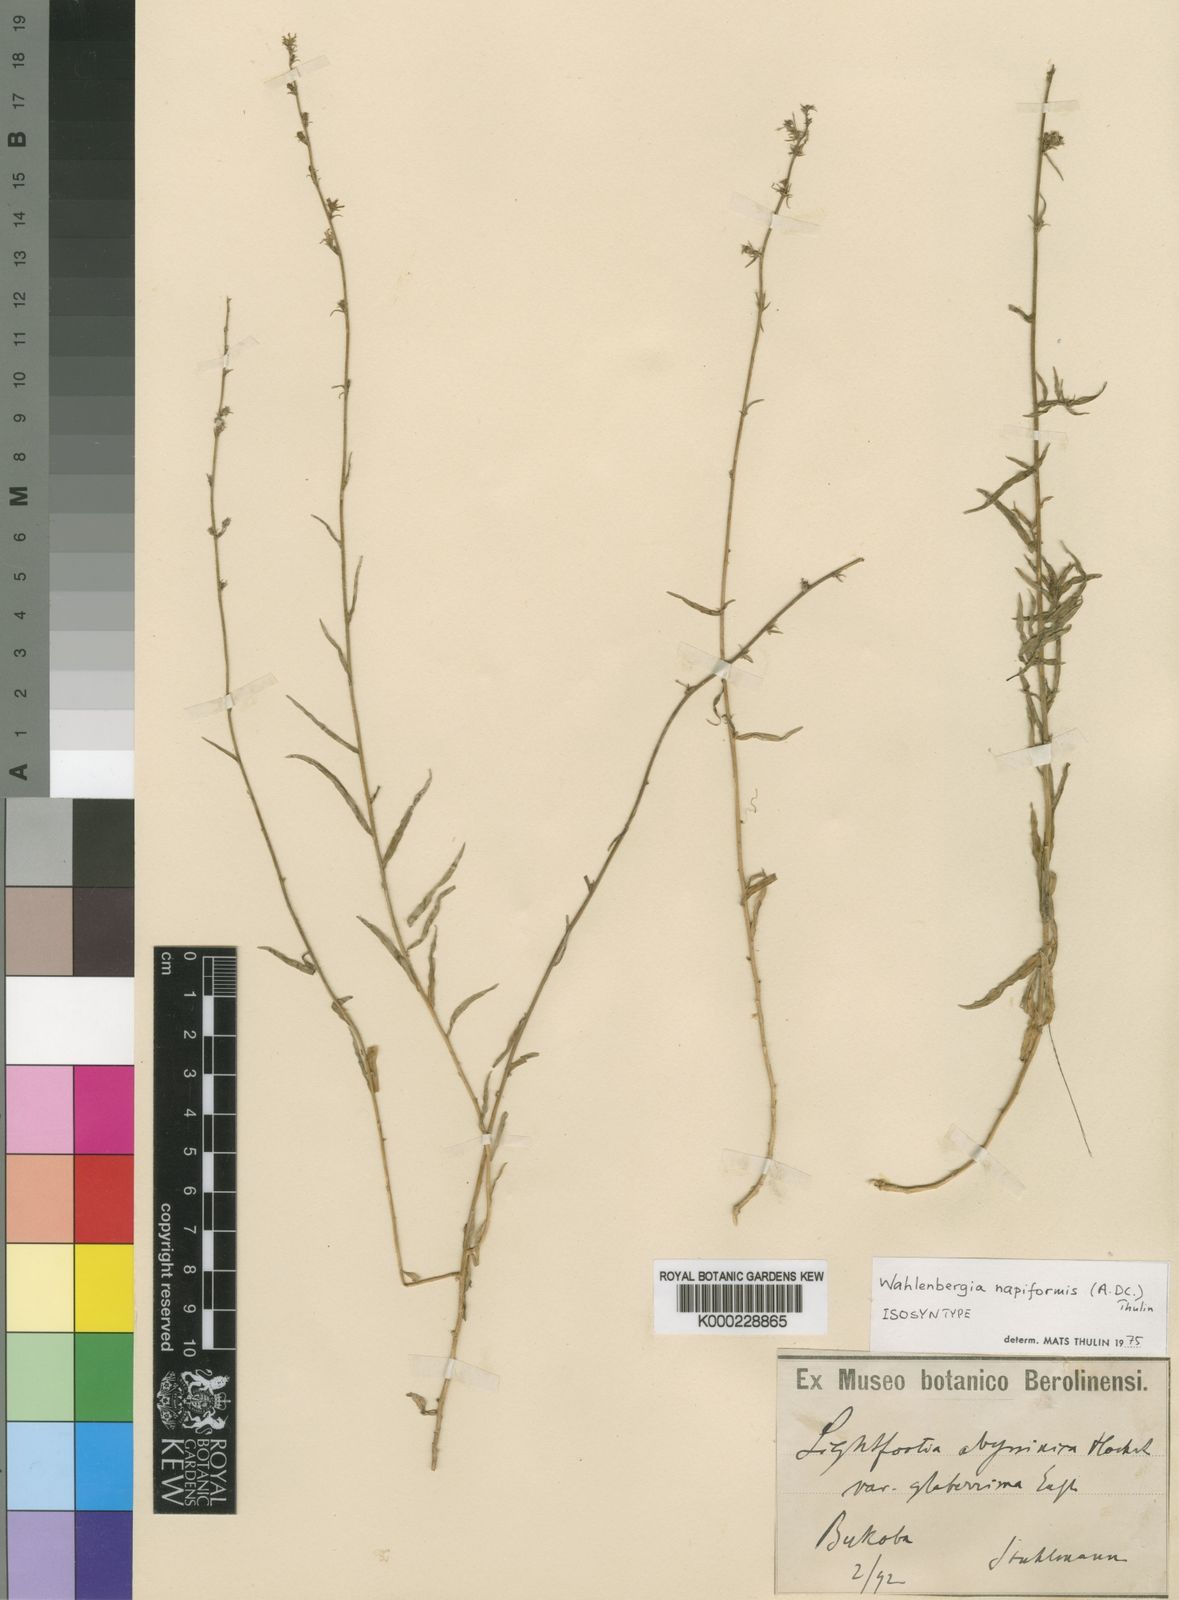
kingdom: Plantae
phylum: Tracheophyta
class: Magnoliopsida
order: Asterales
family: Campanulaceae
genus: Wahlenbergia
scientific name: Wahlenbergia napiformis
